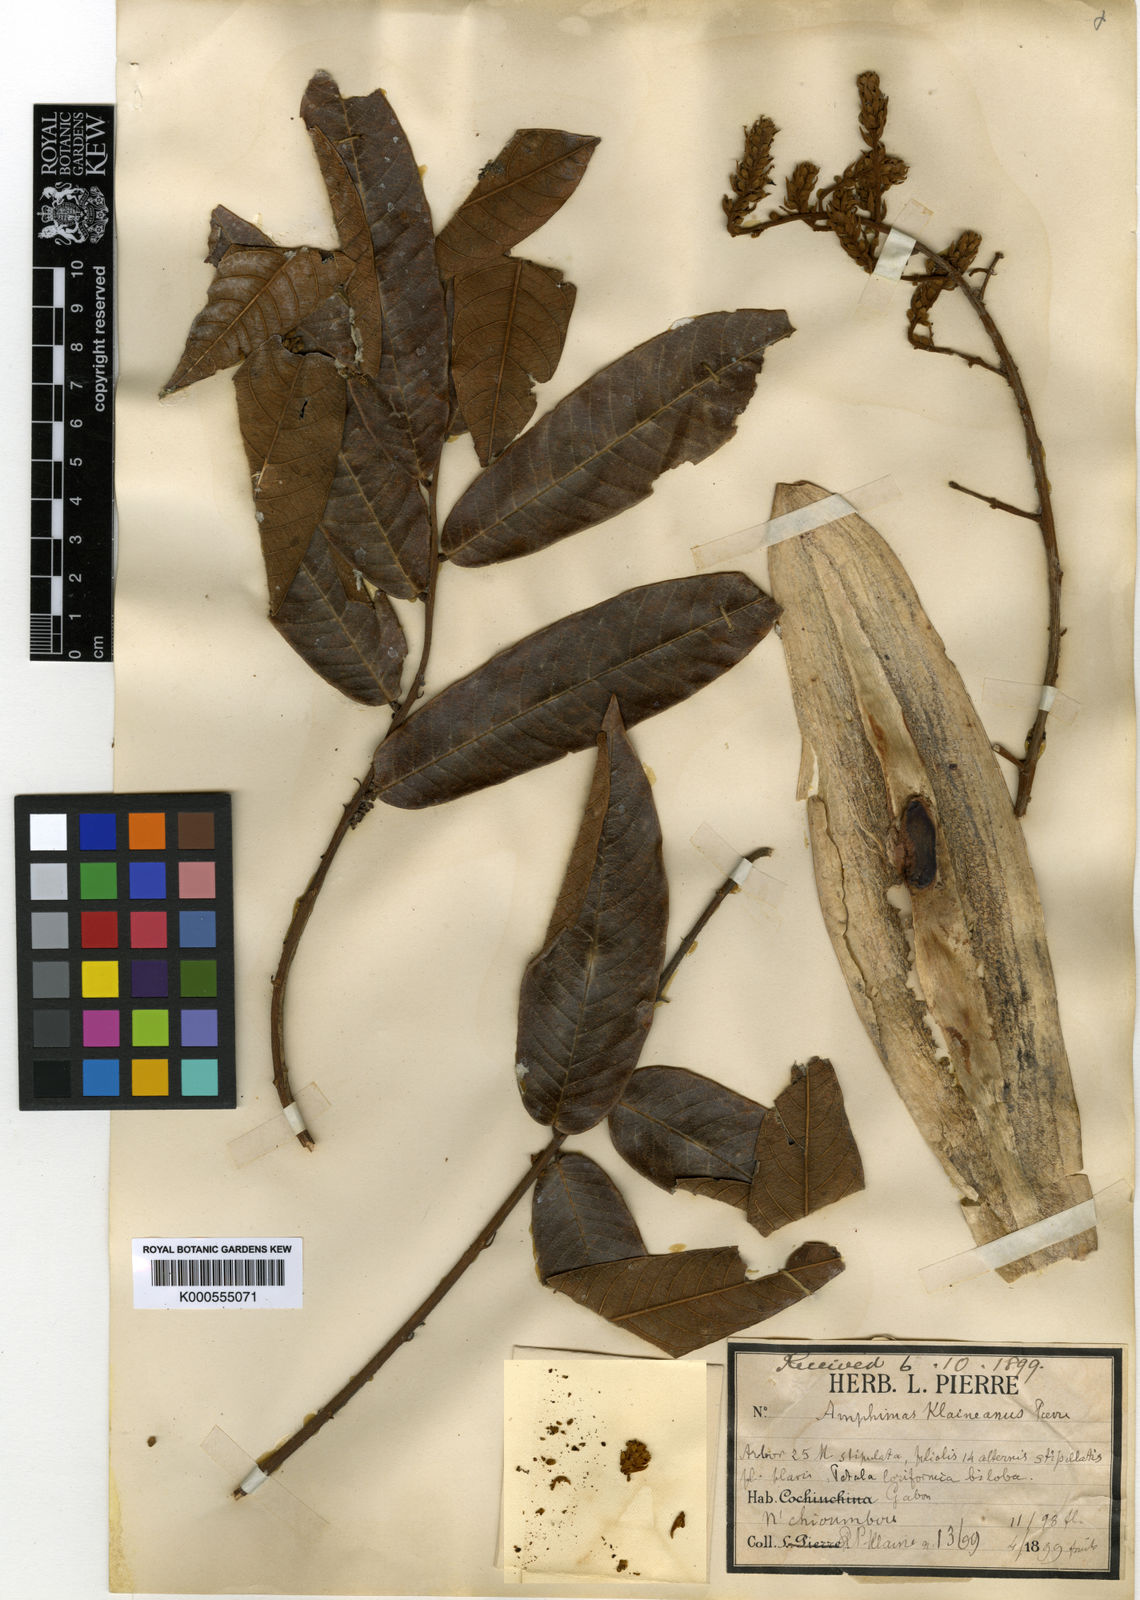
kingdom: Plantae
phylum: Tracheophyta
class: Magnoliopsida
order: Fabales
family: Fabaceae
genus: Amphimas
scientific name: Amphimas
